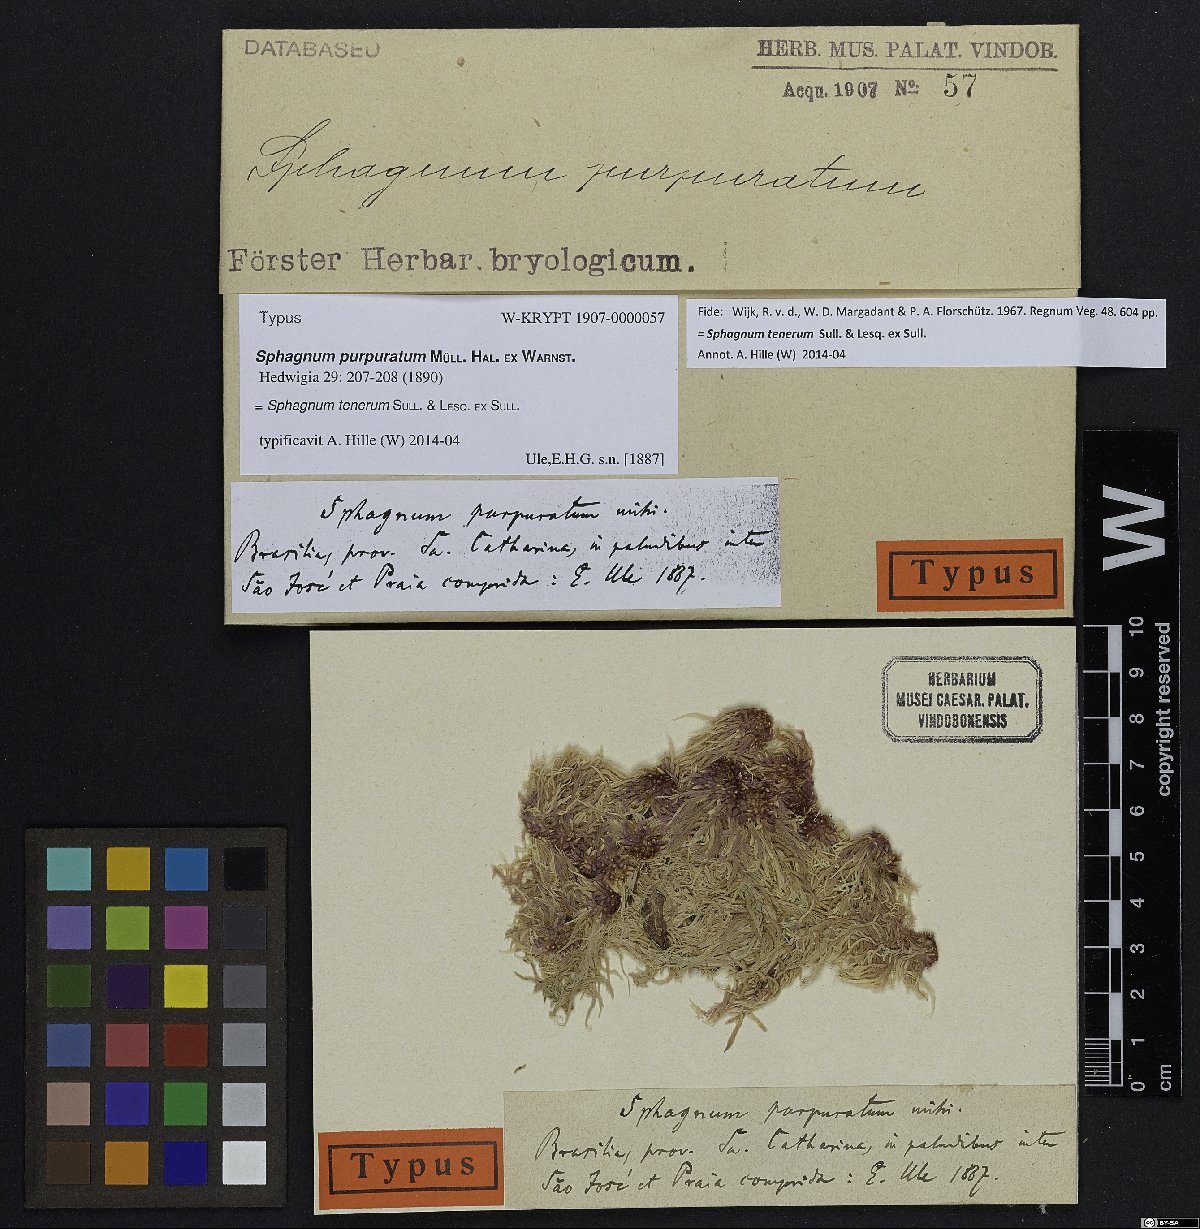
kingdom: Plantae
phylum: Bryophyta
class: Sphagnopsida
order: Sphagnales
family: Sphagnaceae
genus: Sphagnum
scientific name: Sphagnum tenerum
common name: Slender peat moss
